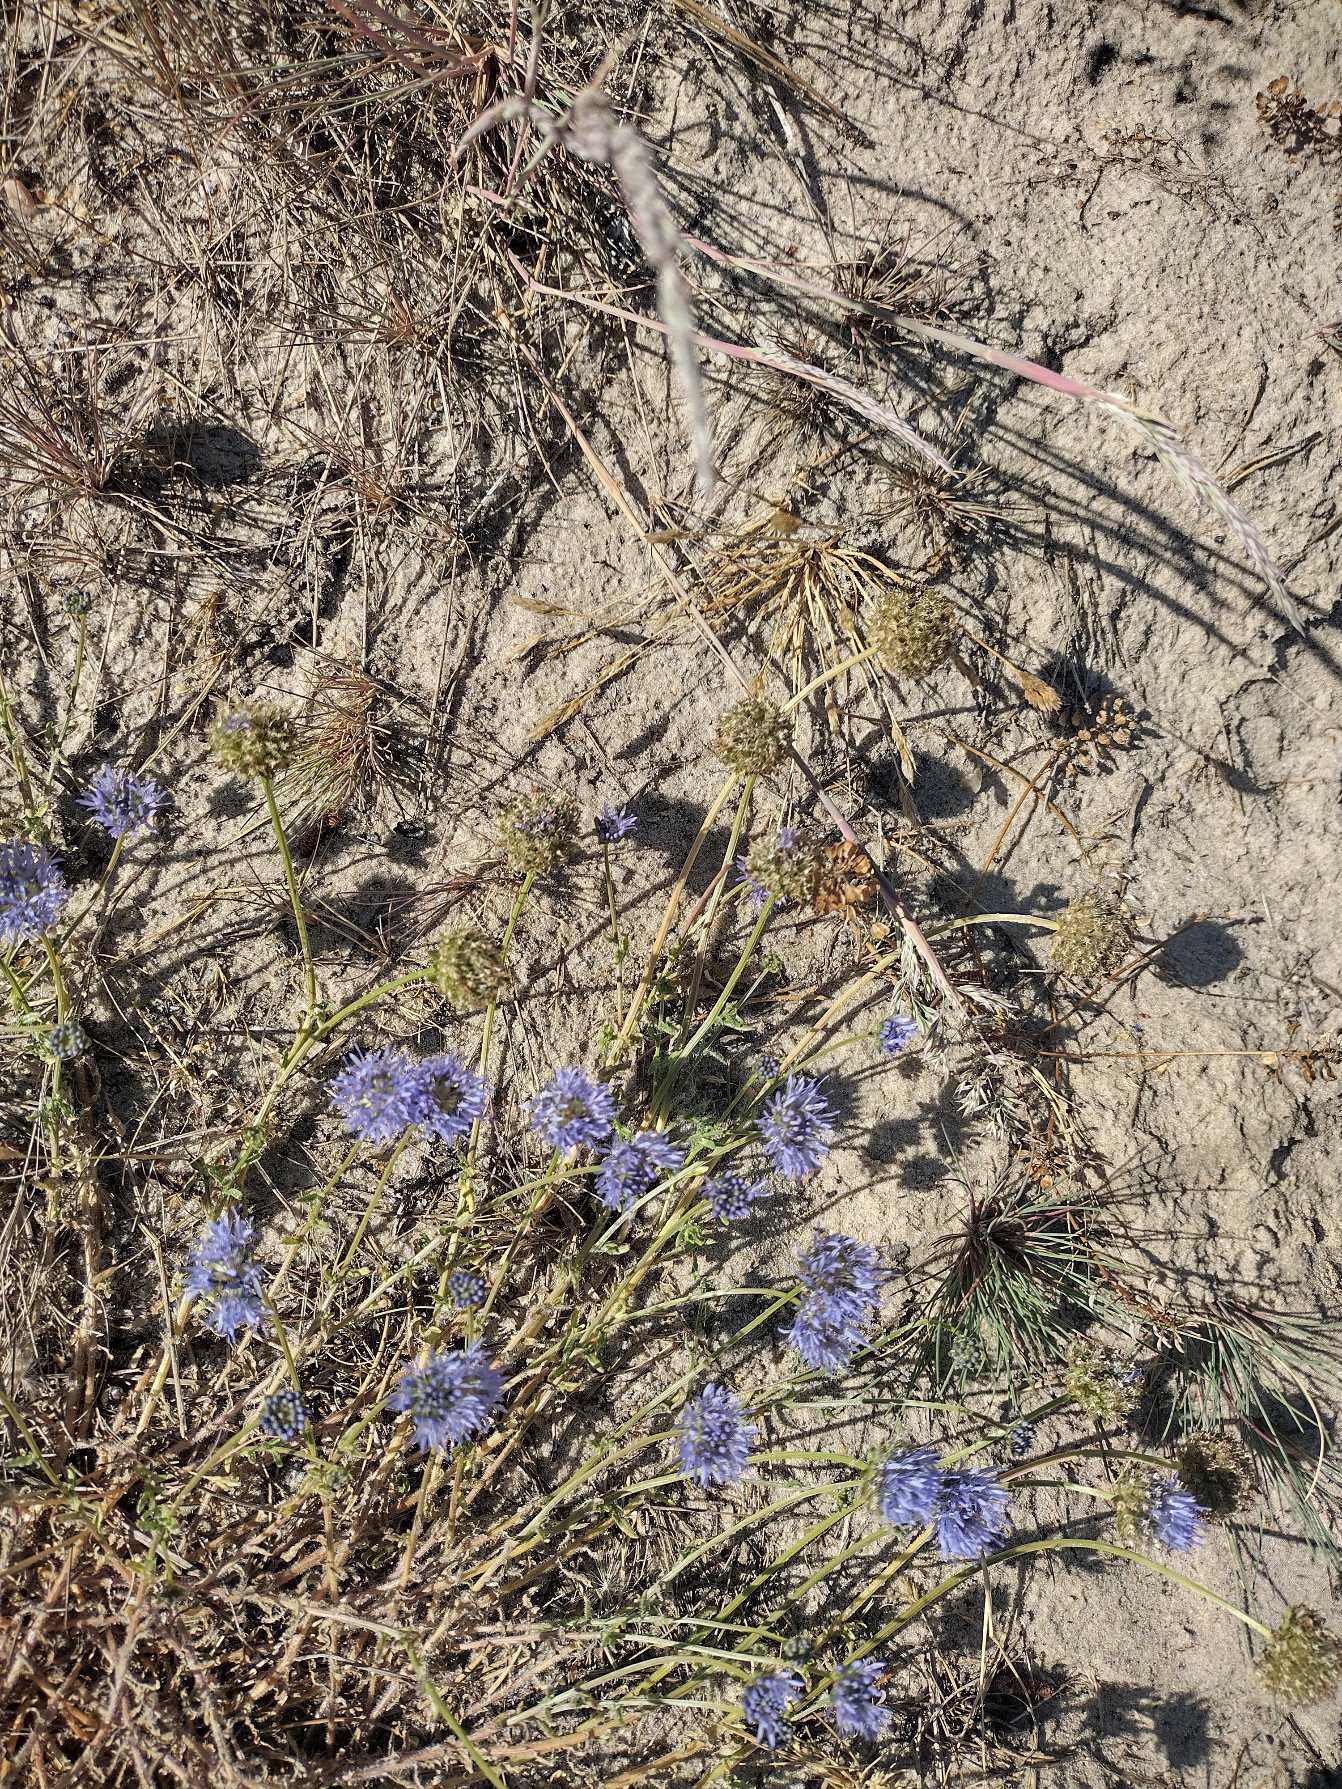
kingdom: Plantae
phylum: Tracheophyta
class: Magnoliopsida
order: Asterales
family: Campanulaceae
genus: Jasione
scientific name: Jasione montana
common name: Blåmunke
